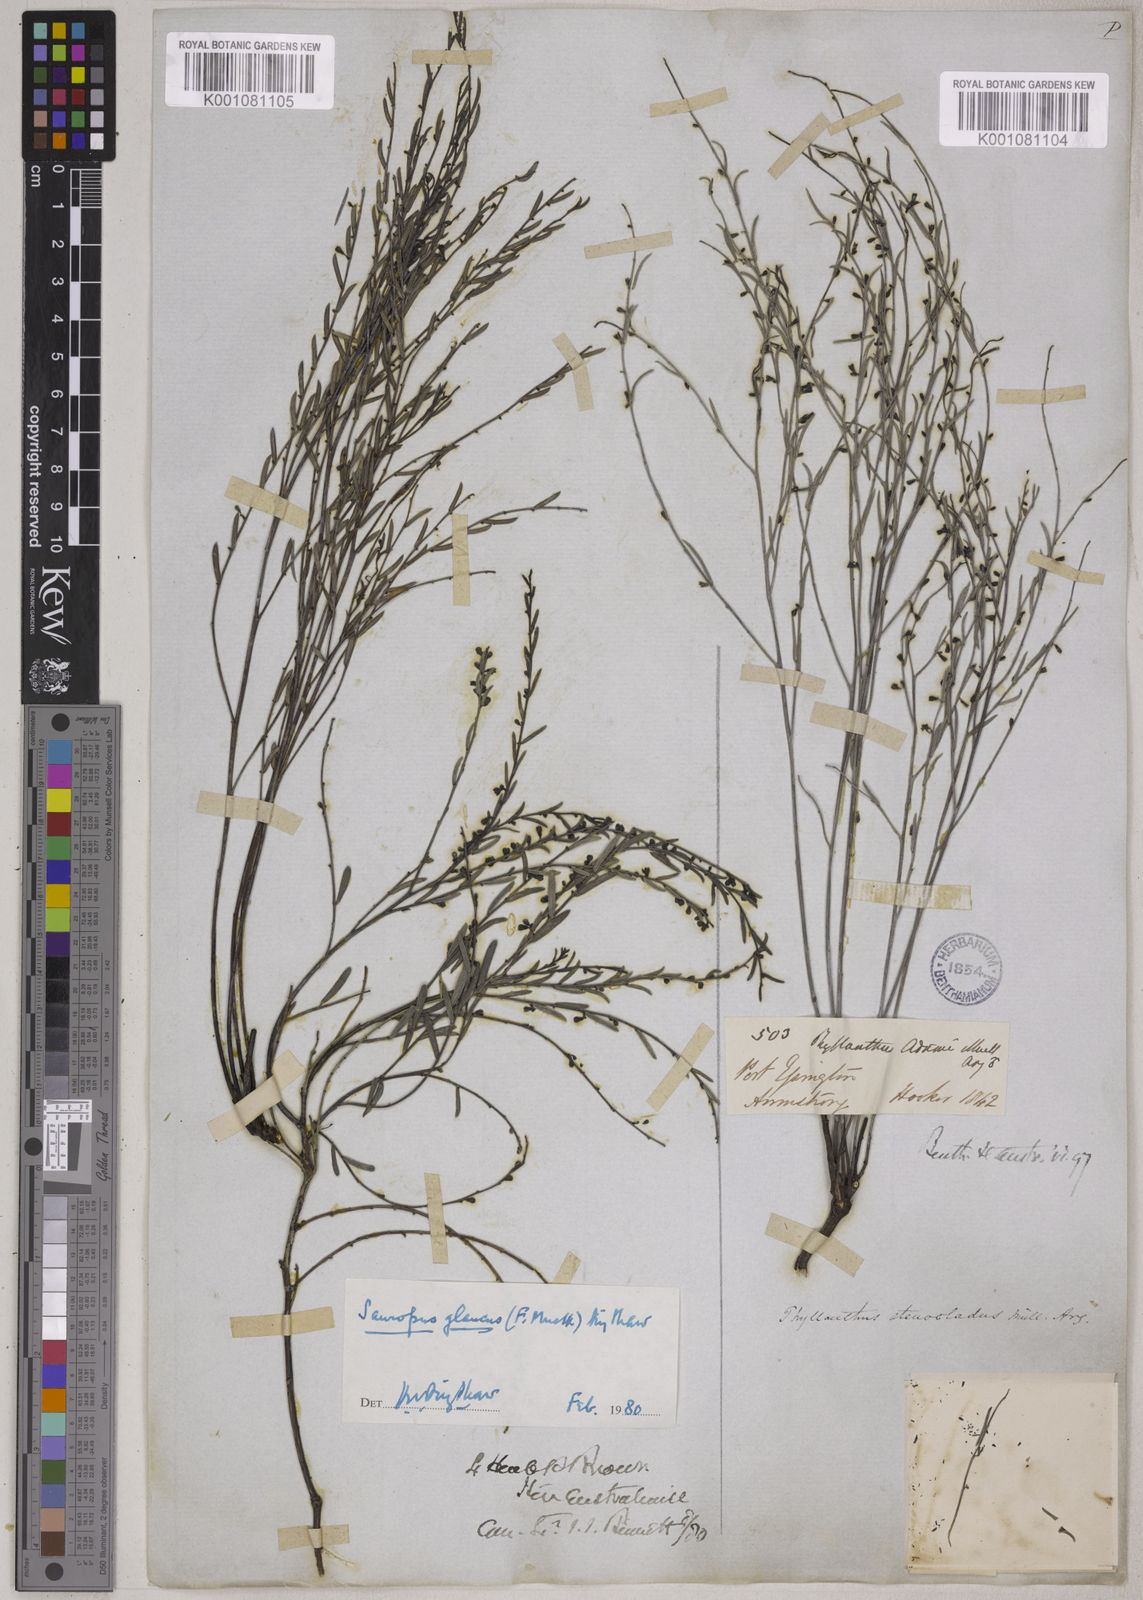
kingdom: Plantae
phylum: Tracheophyta
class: Magnoliopsida
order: Malpighiales
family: Phyllanthaceae
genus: Synostemon
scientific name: Synostemon glaucus
